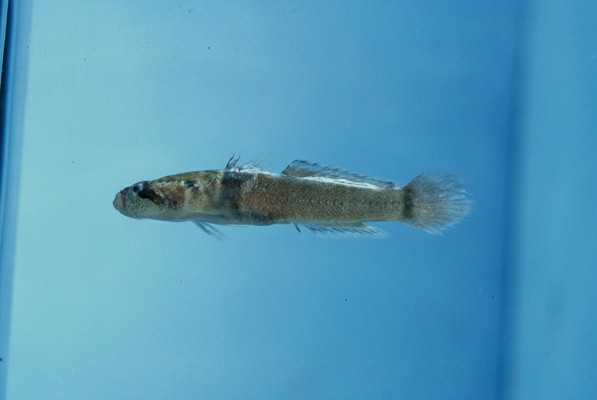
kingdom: Animalia
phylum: Chordata
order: Perciformes
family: Gobiidae
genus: Hetereleotris
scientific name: Hetereleotris zonata
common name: Goggles
